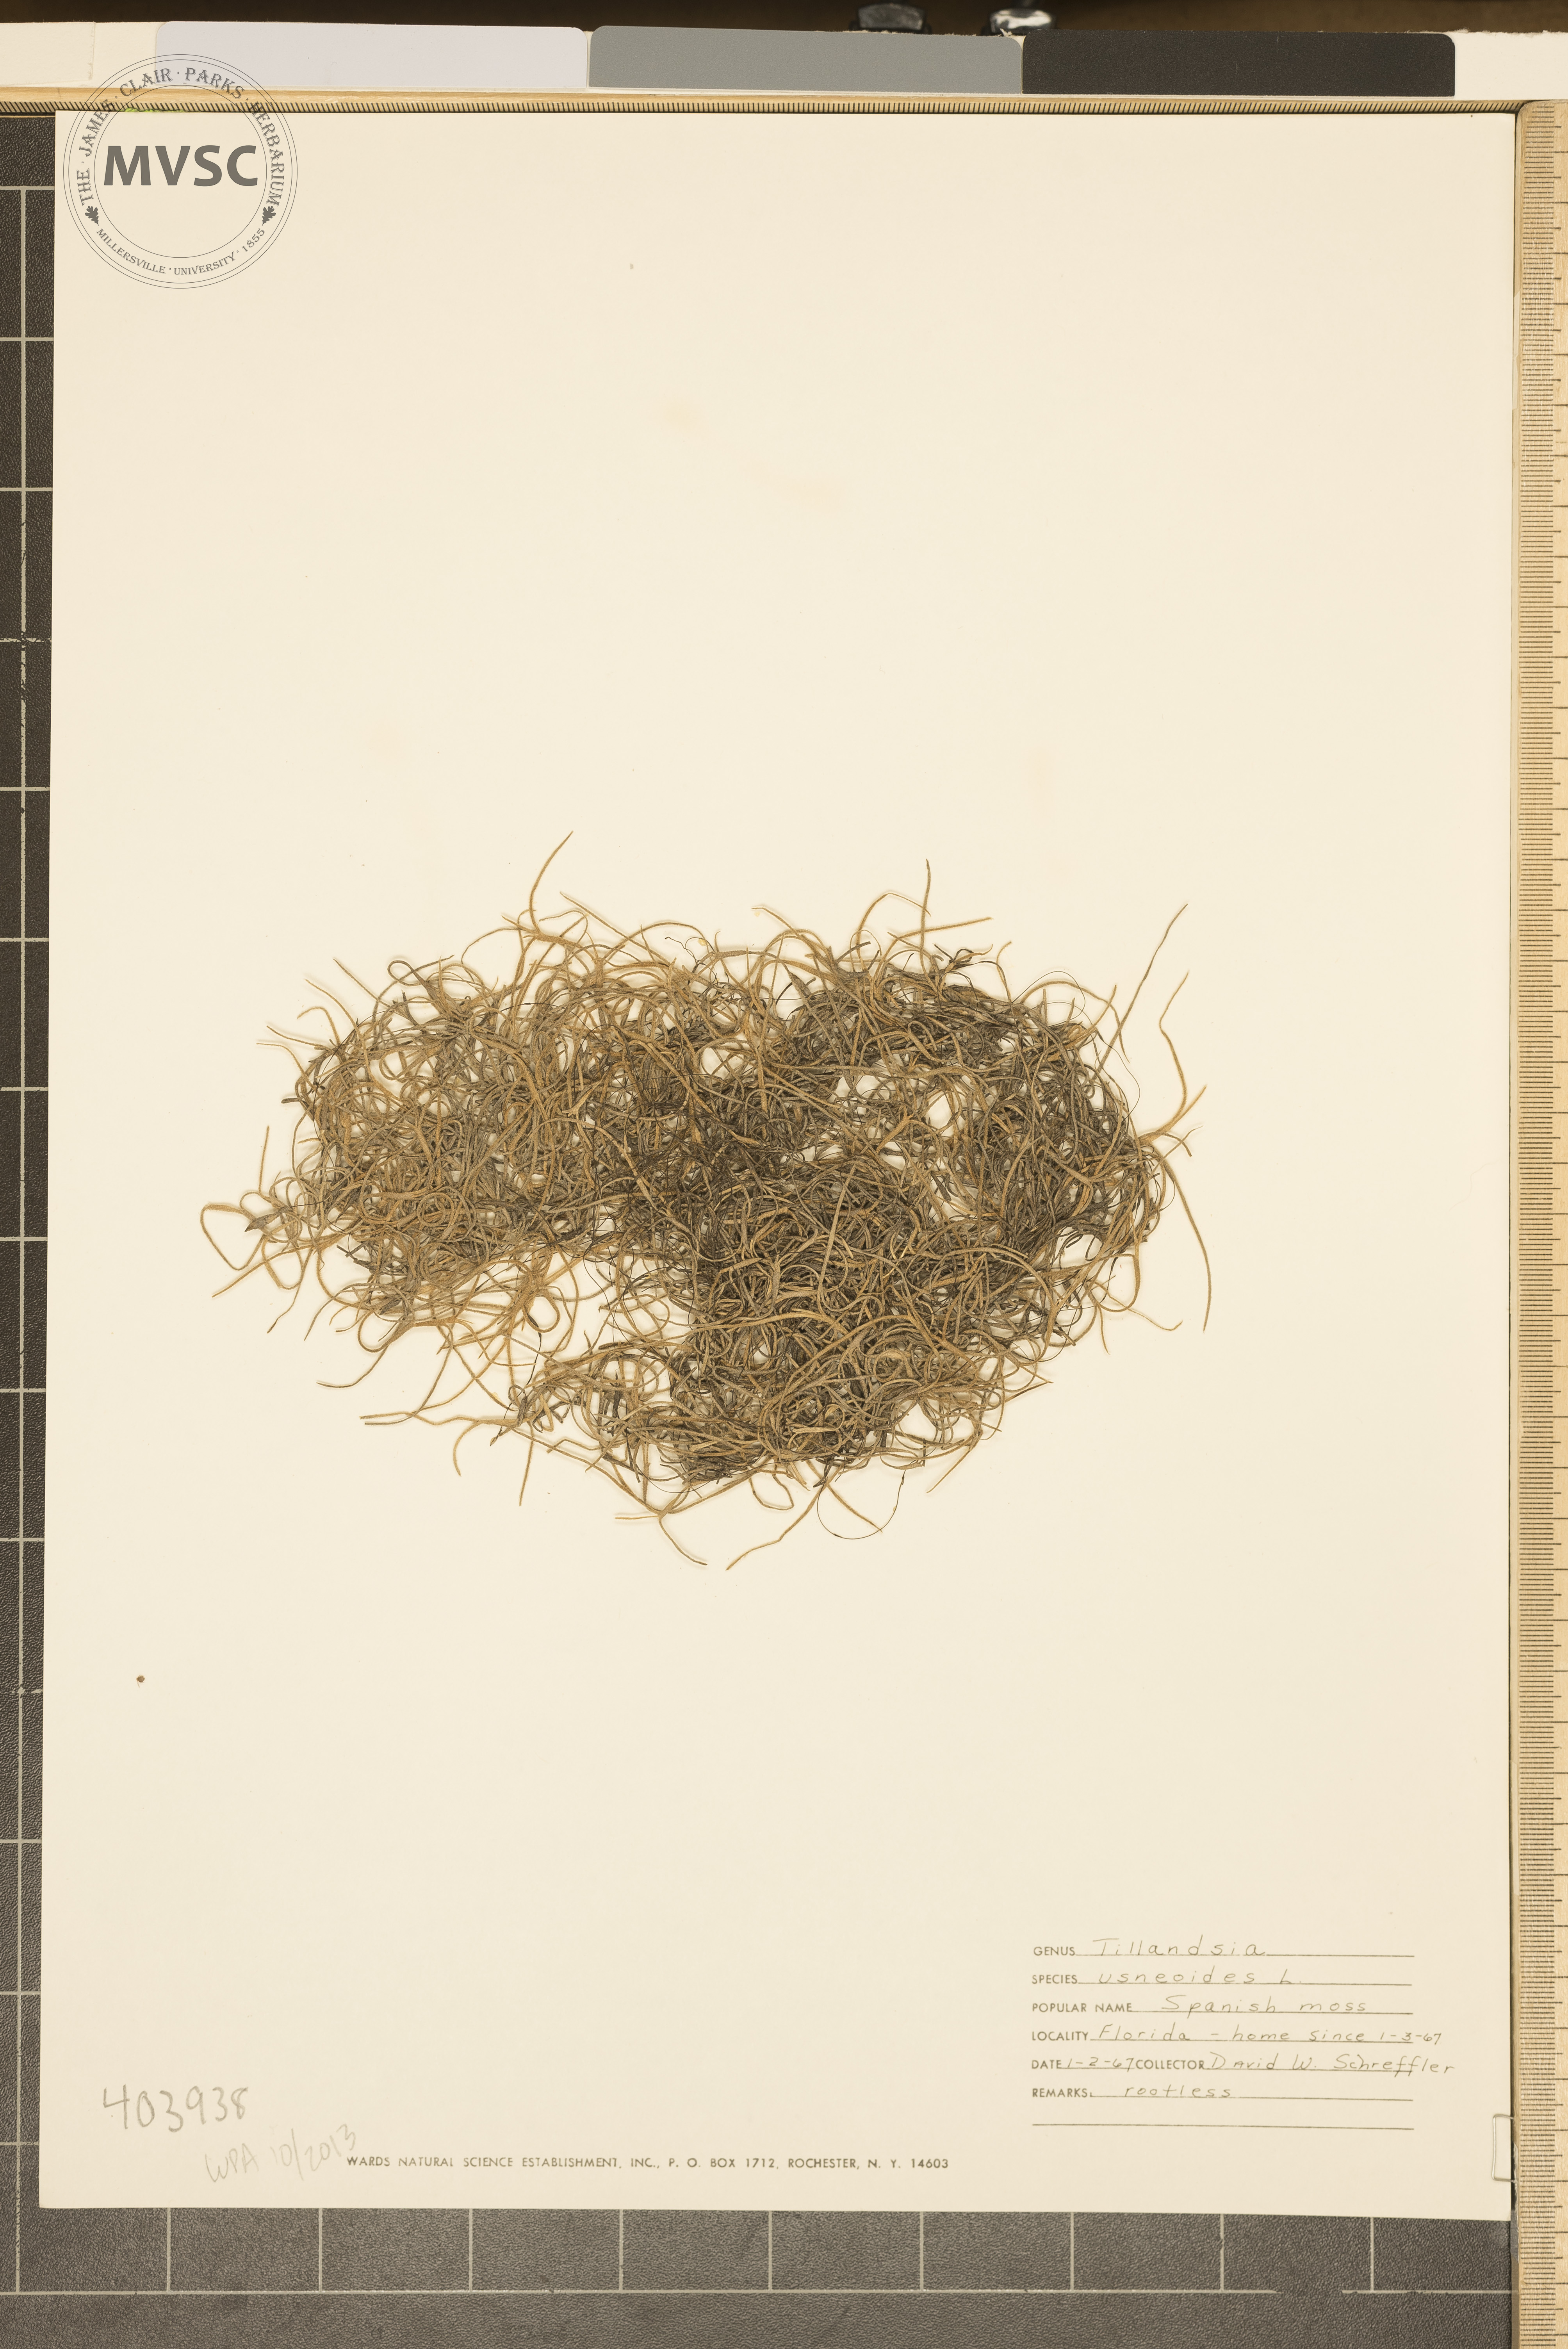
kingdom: Plantae
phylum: Tracheophyta
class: Liliopsida
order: Poales
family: Bromeliaceae
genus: Tillandsia
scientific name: Tillandsia usneoides
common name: Spanish-moss
